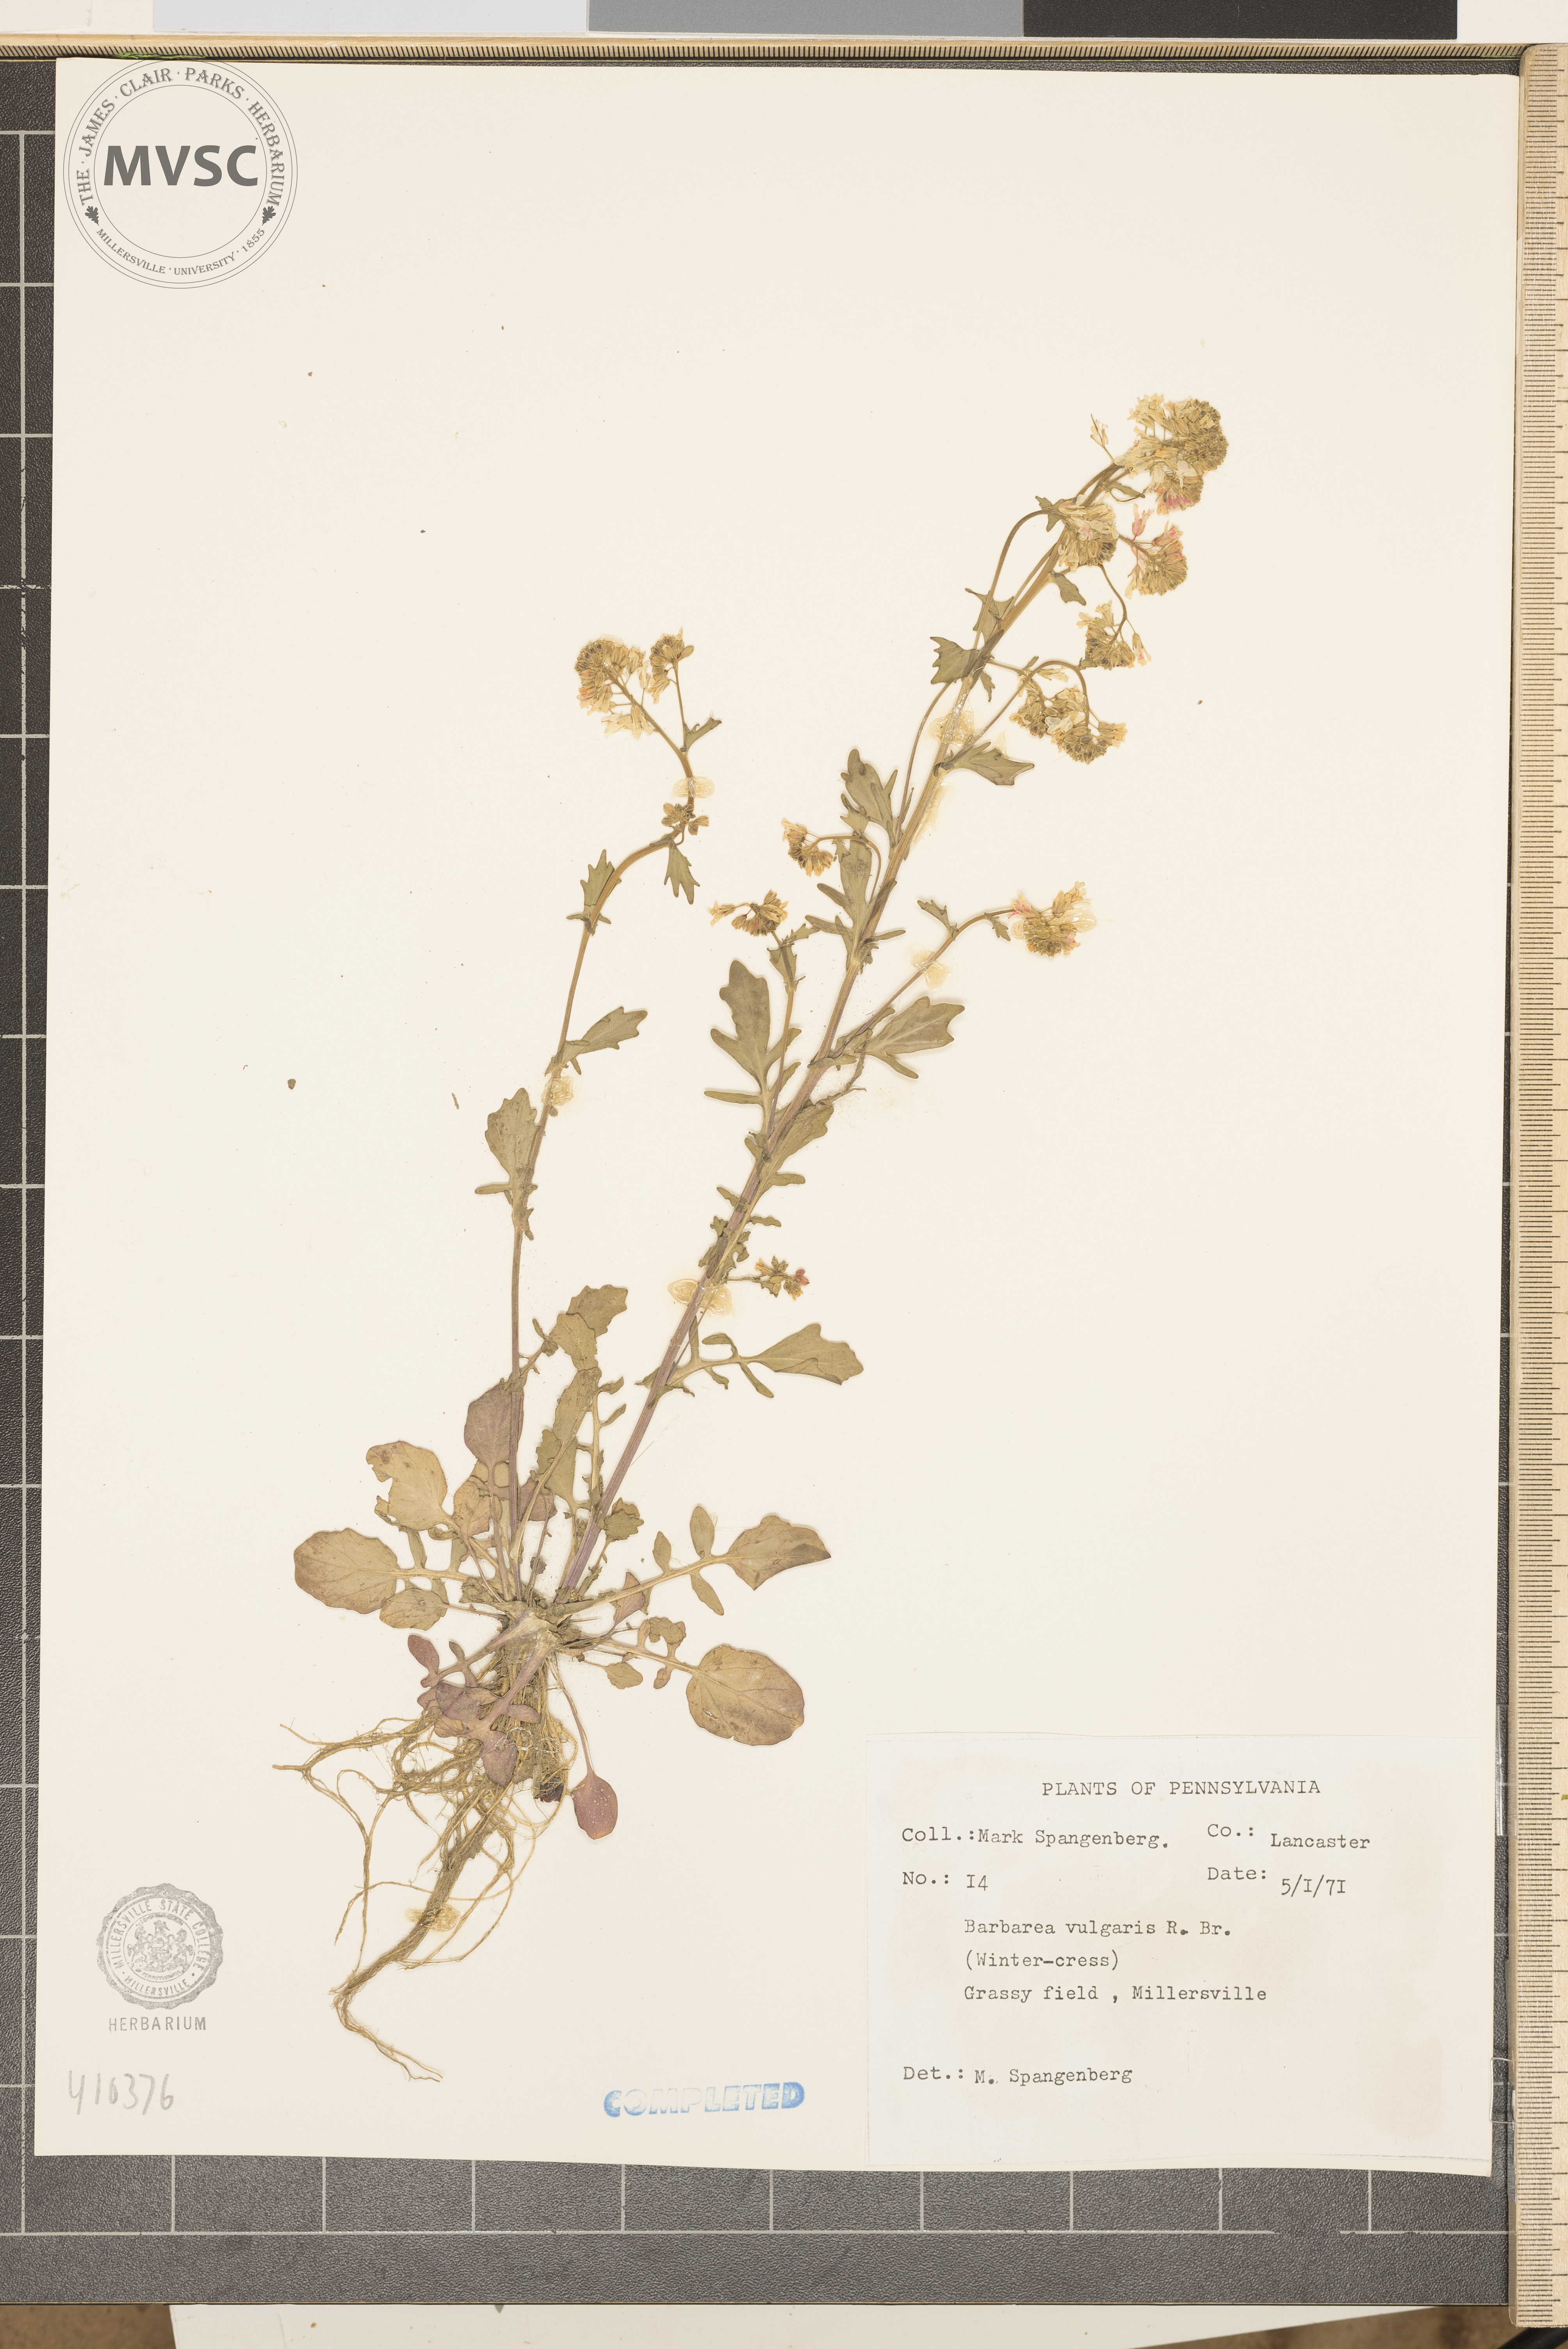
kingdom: Plantae
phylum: Tracheophyta
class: Magnoliopsida
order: Brassicales
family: Brassicaceae
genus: Barbarea
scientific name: Barbarea vulgaris
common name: Cressy-greens
